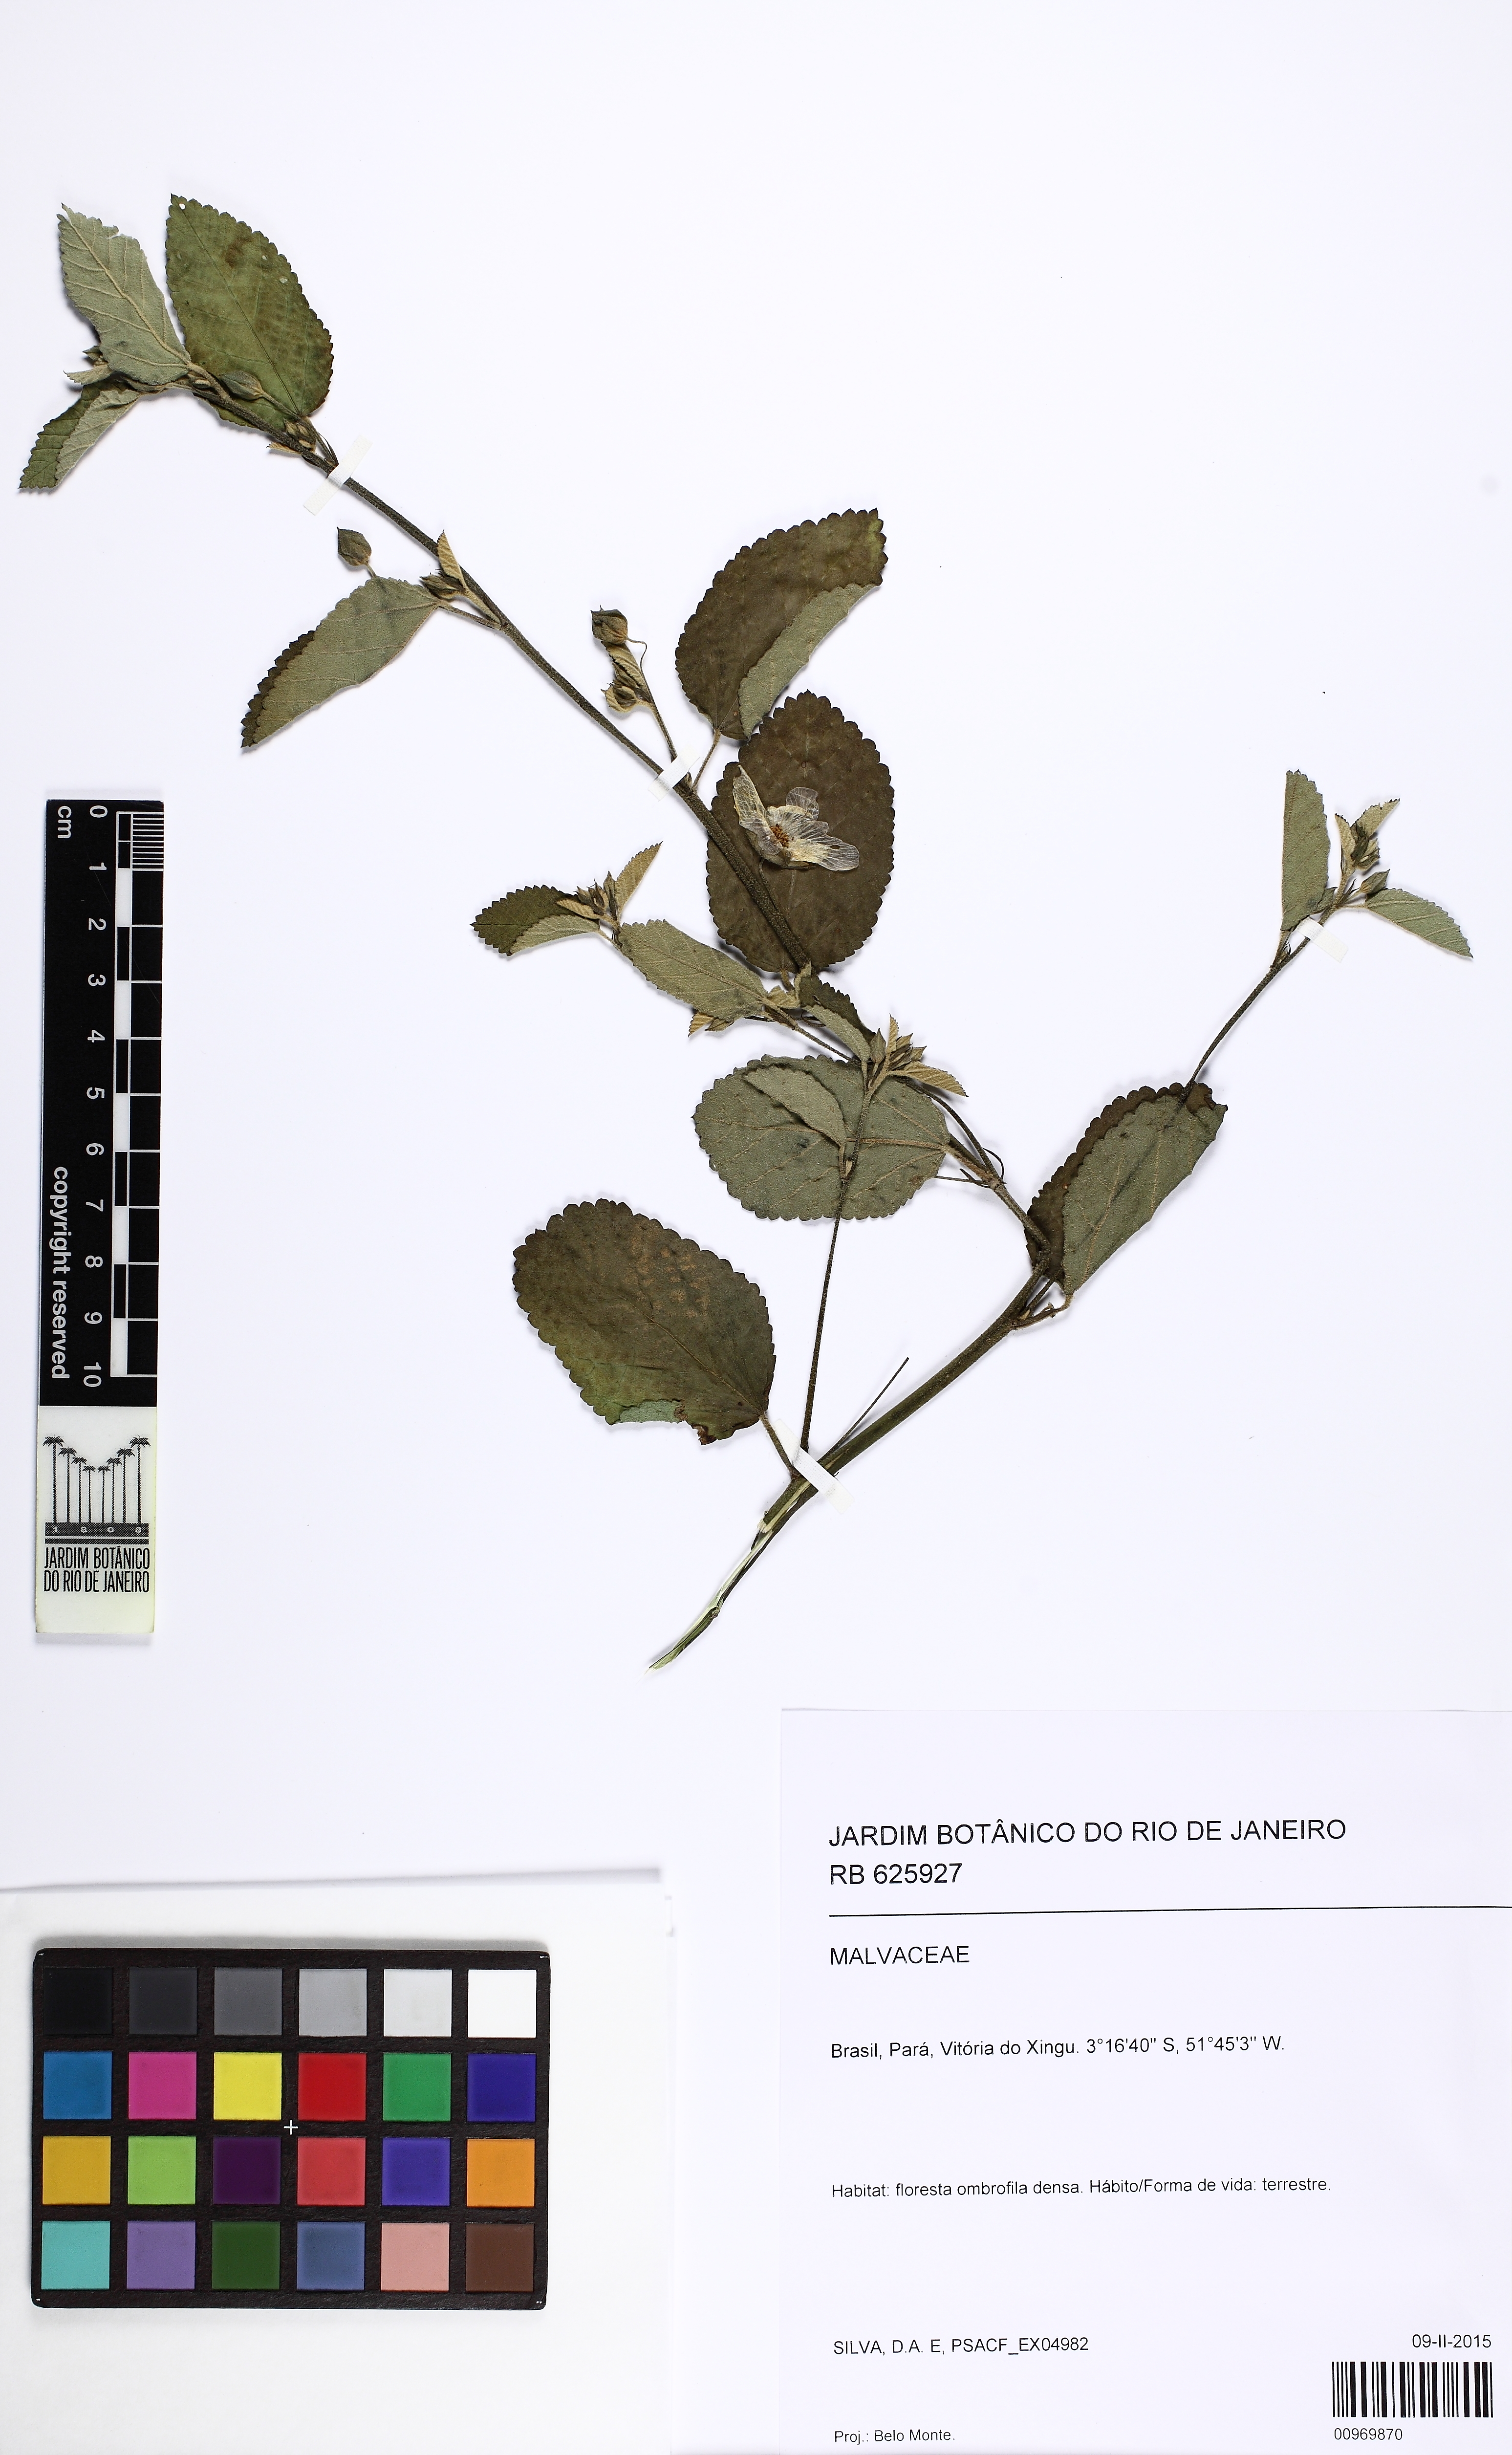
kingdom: Plantae
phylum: Tracheophyta
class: Magnoliopsida
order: Malvales
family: Malvaceae
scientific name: Malvaceae
